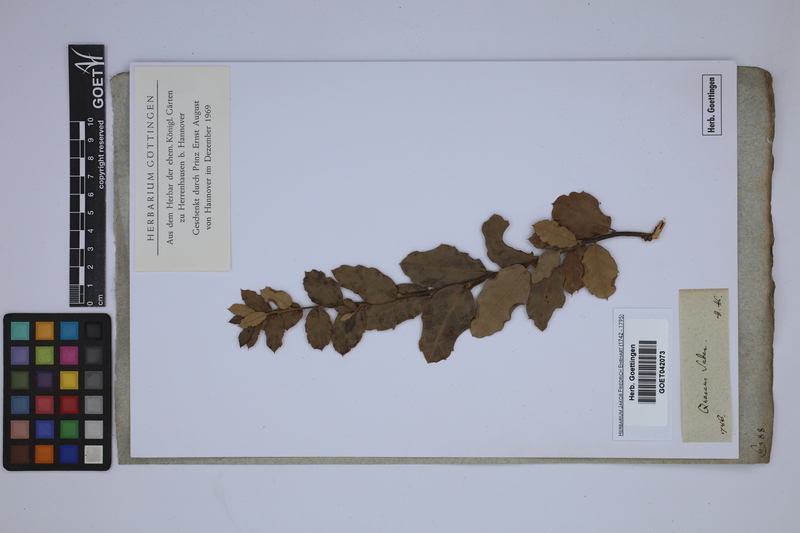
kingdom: Plantae
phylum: Tracheophyta
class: Magnoliopsida
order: Fagales
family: Fagaceae
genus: Quercus
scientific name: Quercus suber
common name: Cork oak
